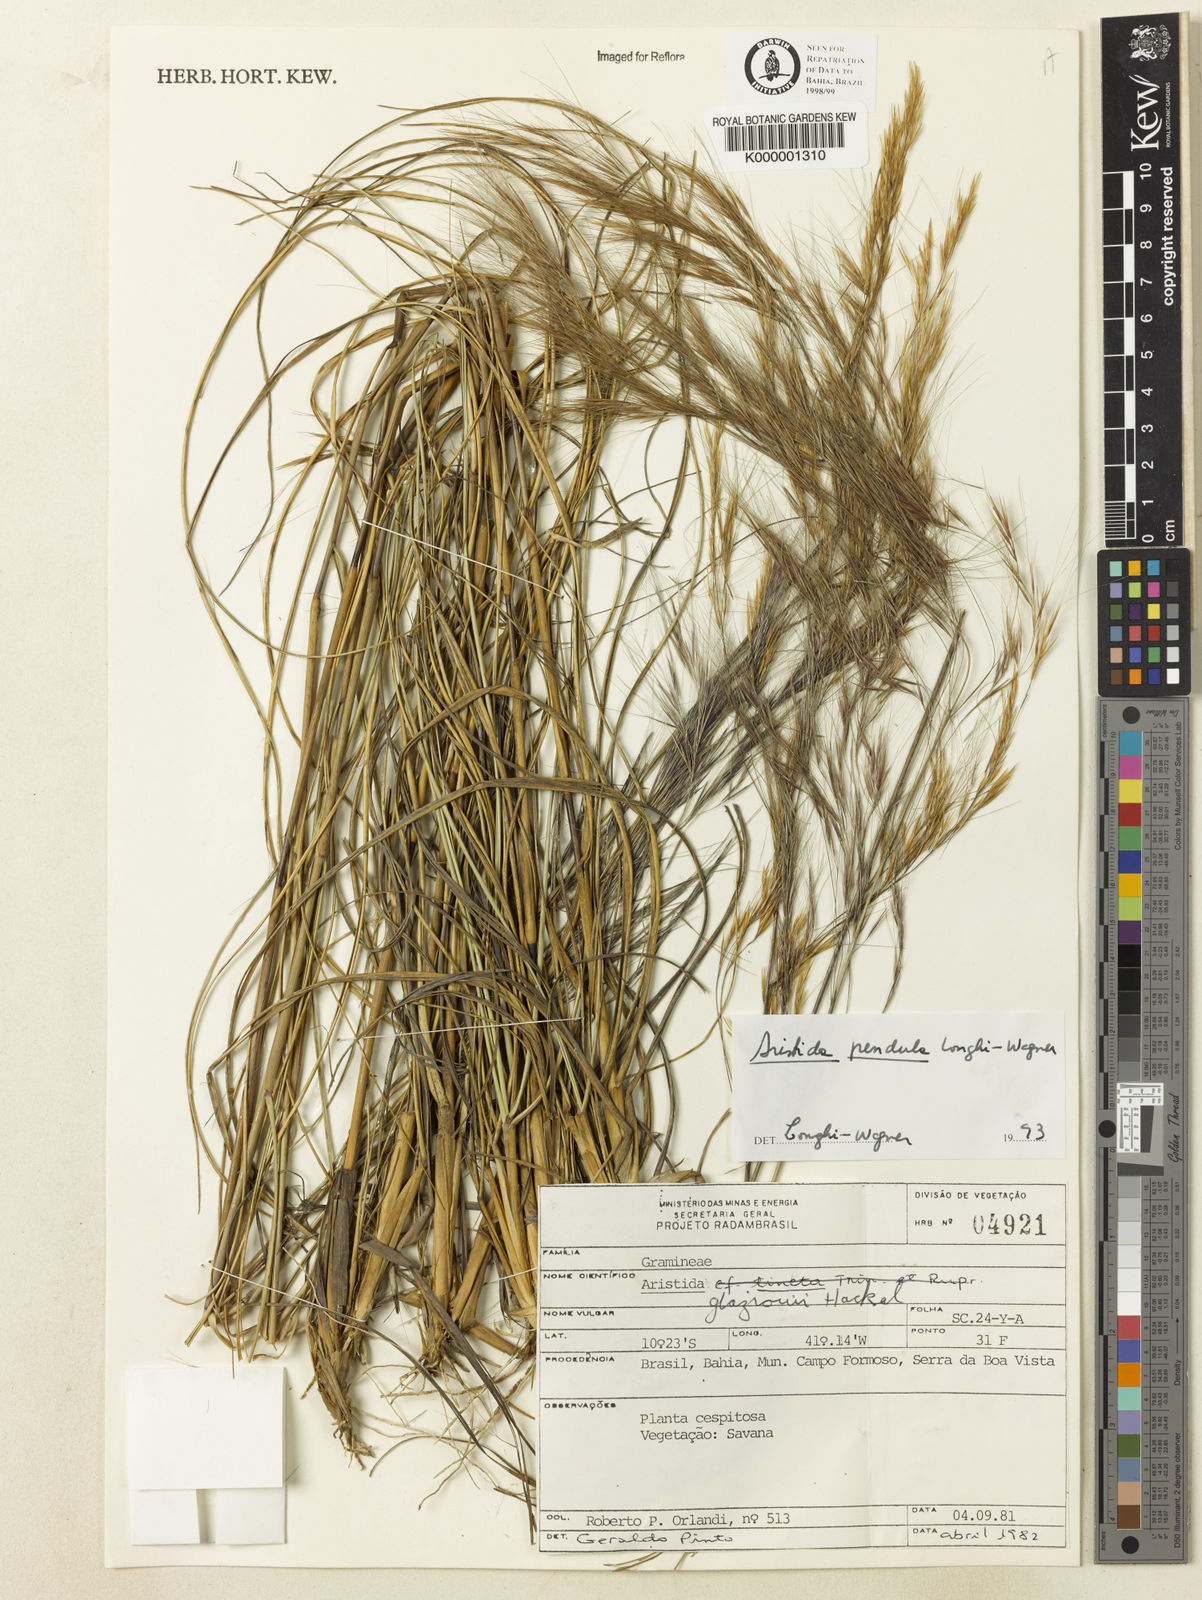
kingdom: Plantae
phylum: Tracheophyta
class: Liliopsida
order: Poales
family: Poaceae
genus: Aristida
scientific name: Aristida pendula
